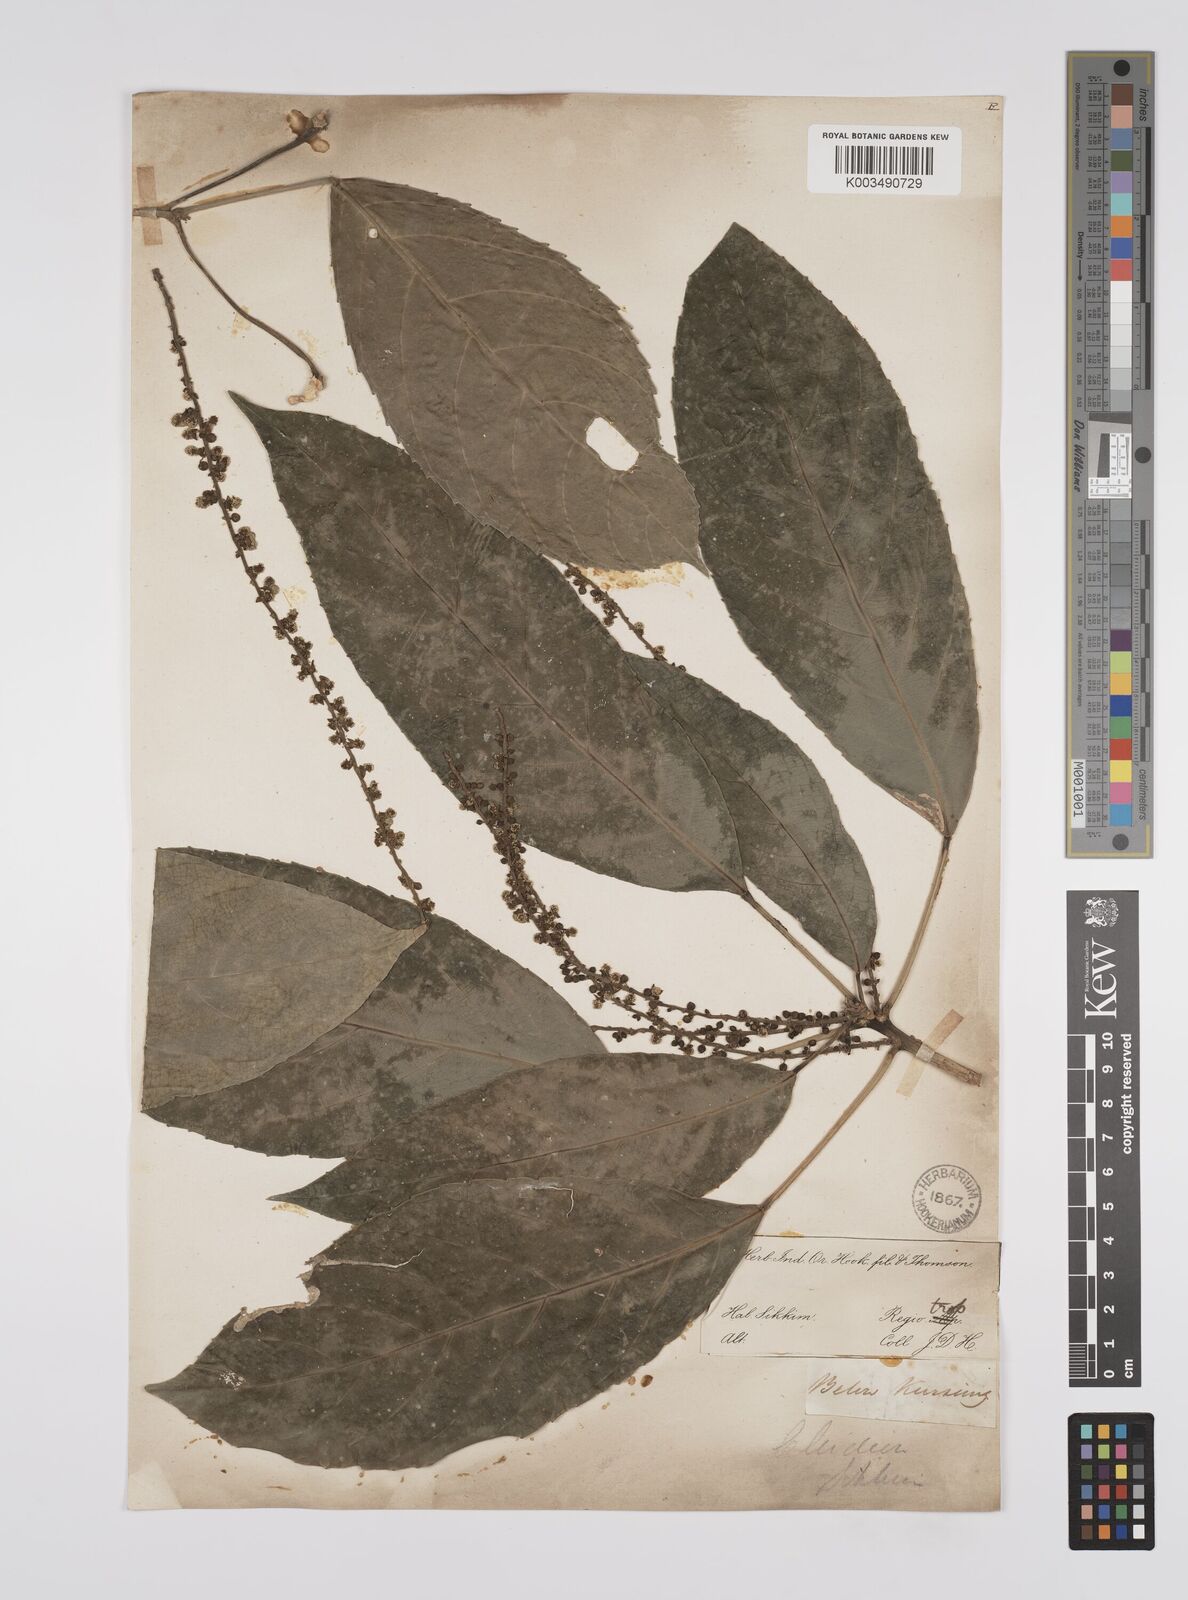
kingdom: Plantae
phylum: Tracheophyta
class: Magnoliopsida
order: Malpighiales
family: Euphorbiaceae
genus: Acalypha
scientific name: Acalypha spiciflora
